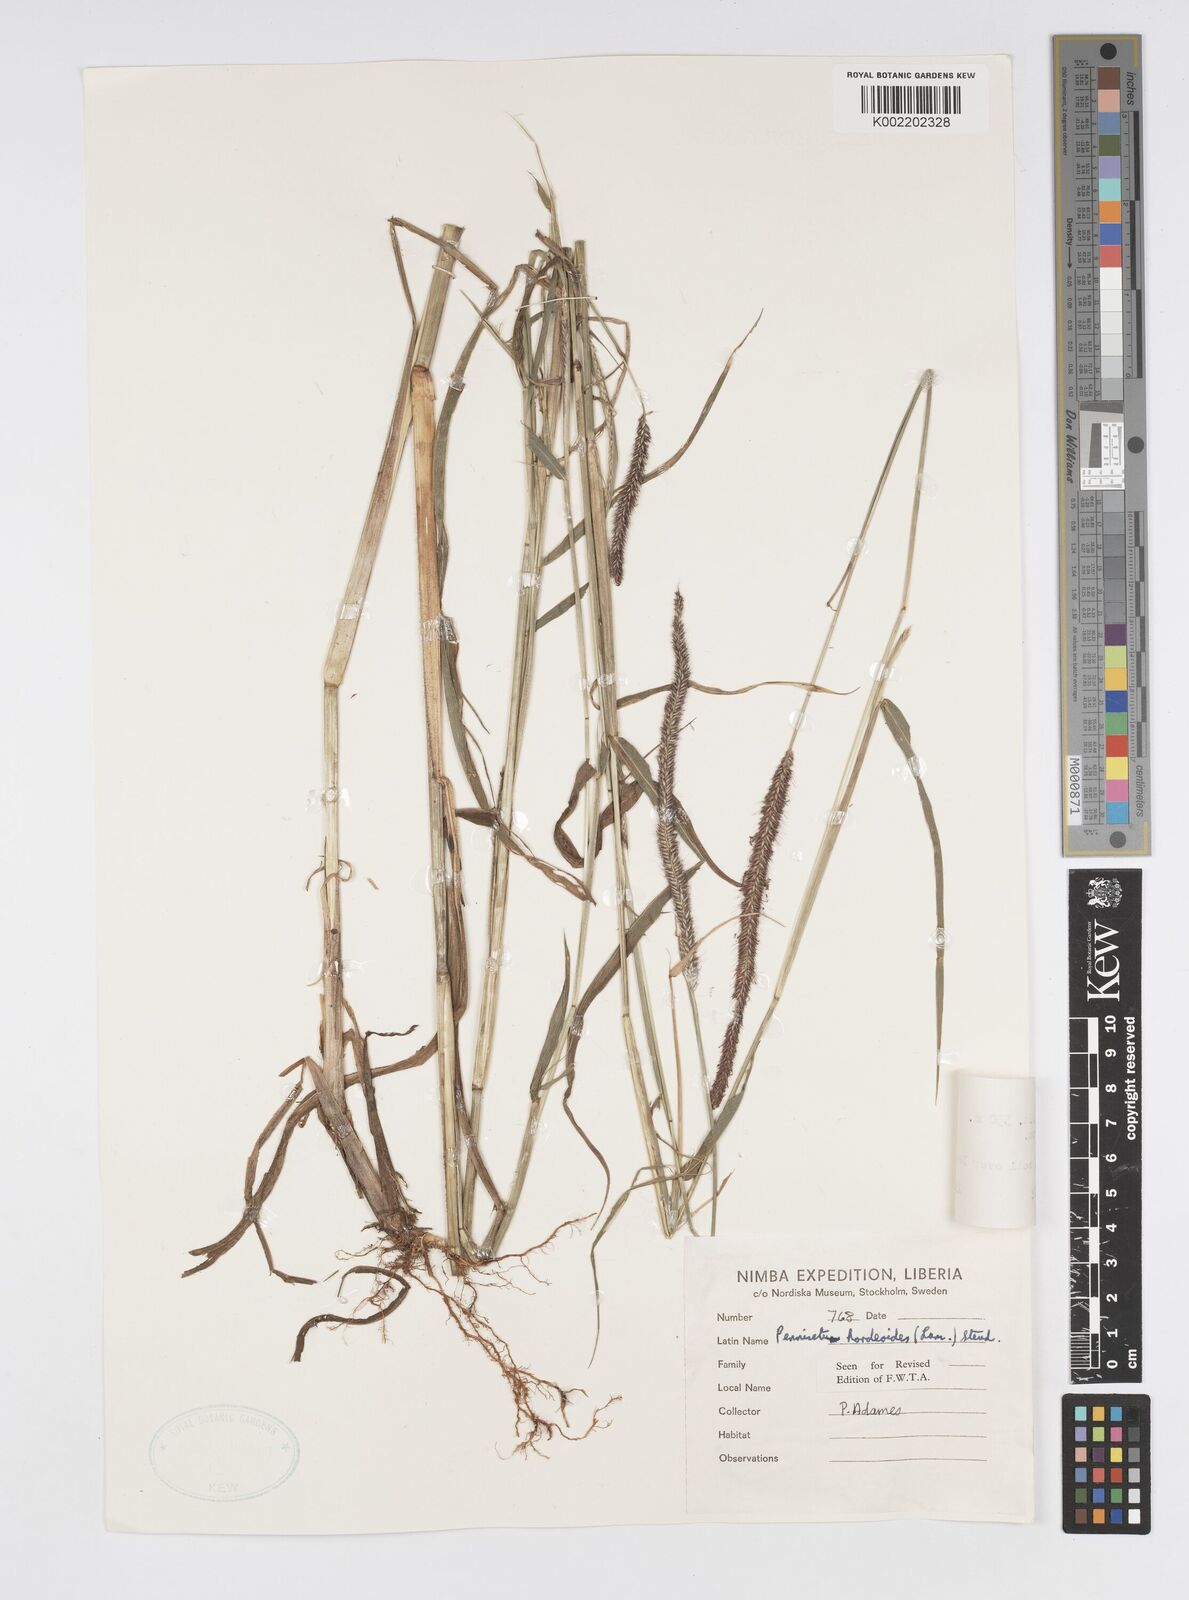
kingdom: Plantae
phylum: Tracheophyta
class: Liliopsida
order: Poales
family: Poaceae
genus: Cenchrus
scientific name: Cenchrus hordeoides
